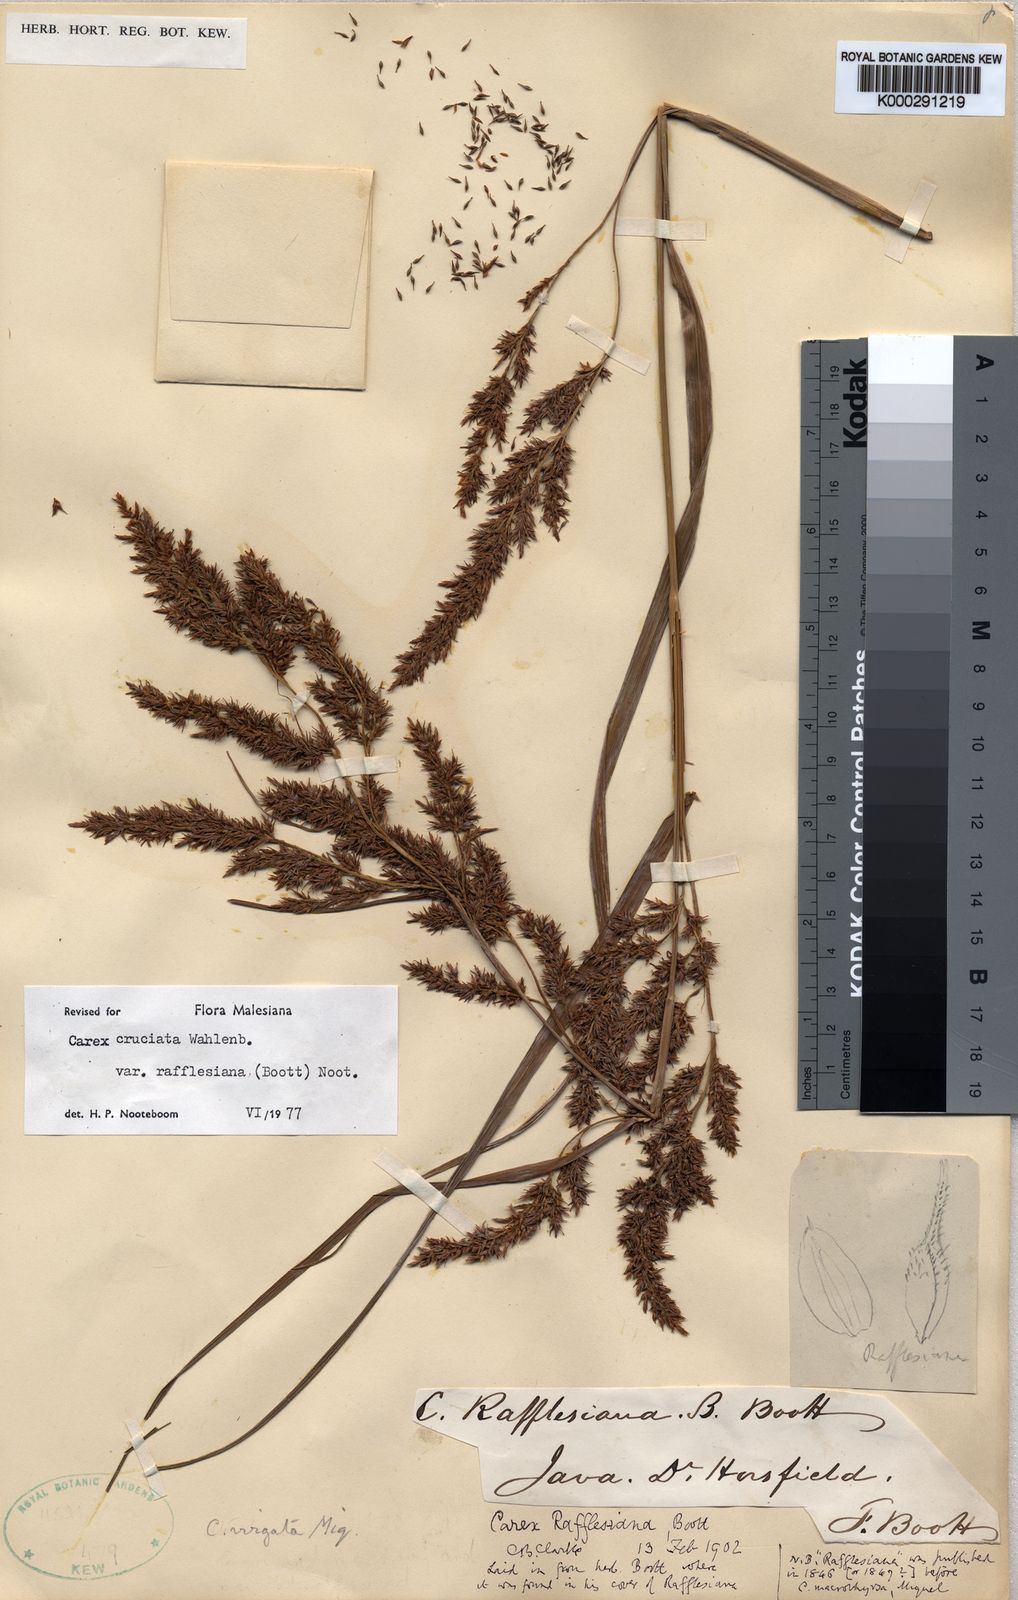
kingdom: Plantae
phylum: Tracheophyta
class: Liliopsida
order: Poales
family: Cyperaceae
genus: Carex
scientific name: Carex rafflesiana
